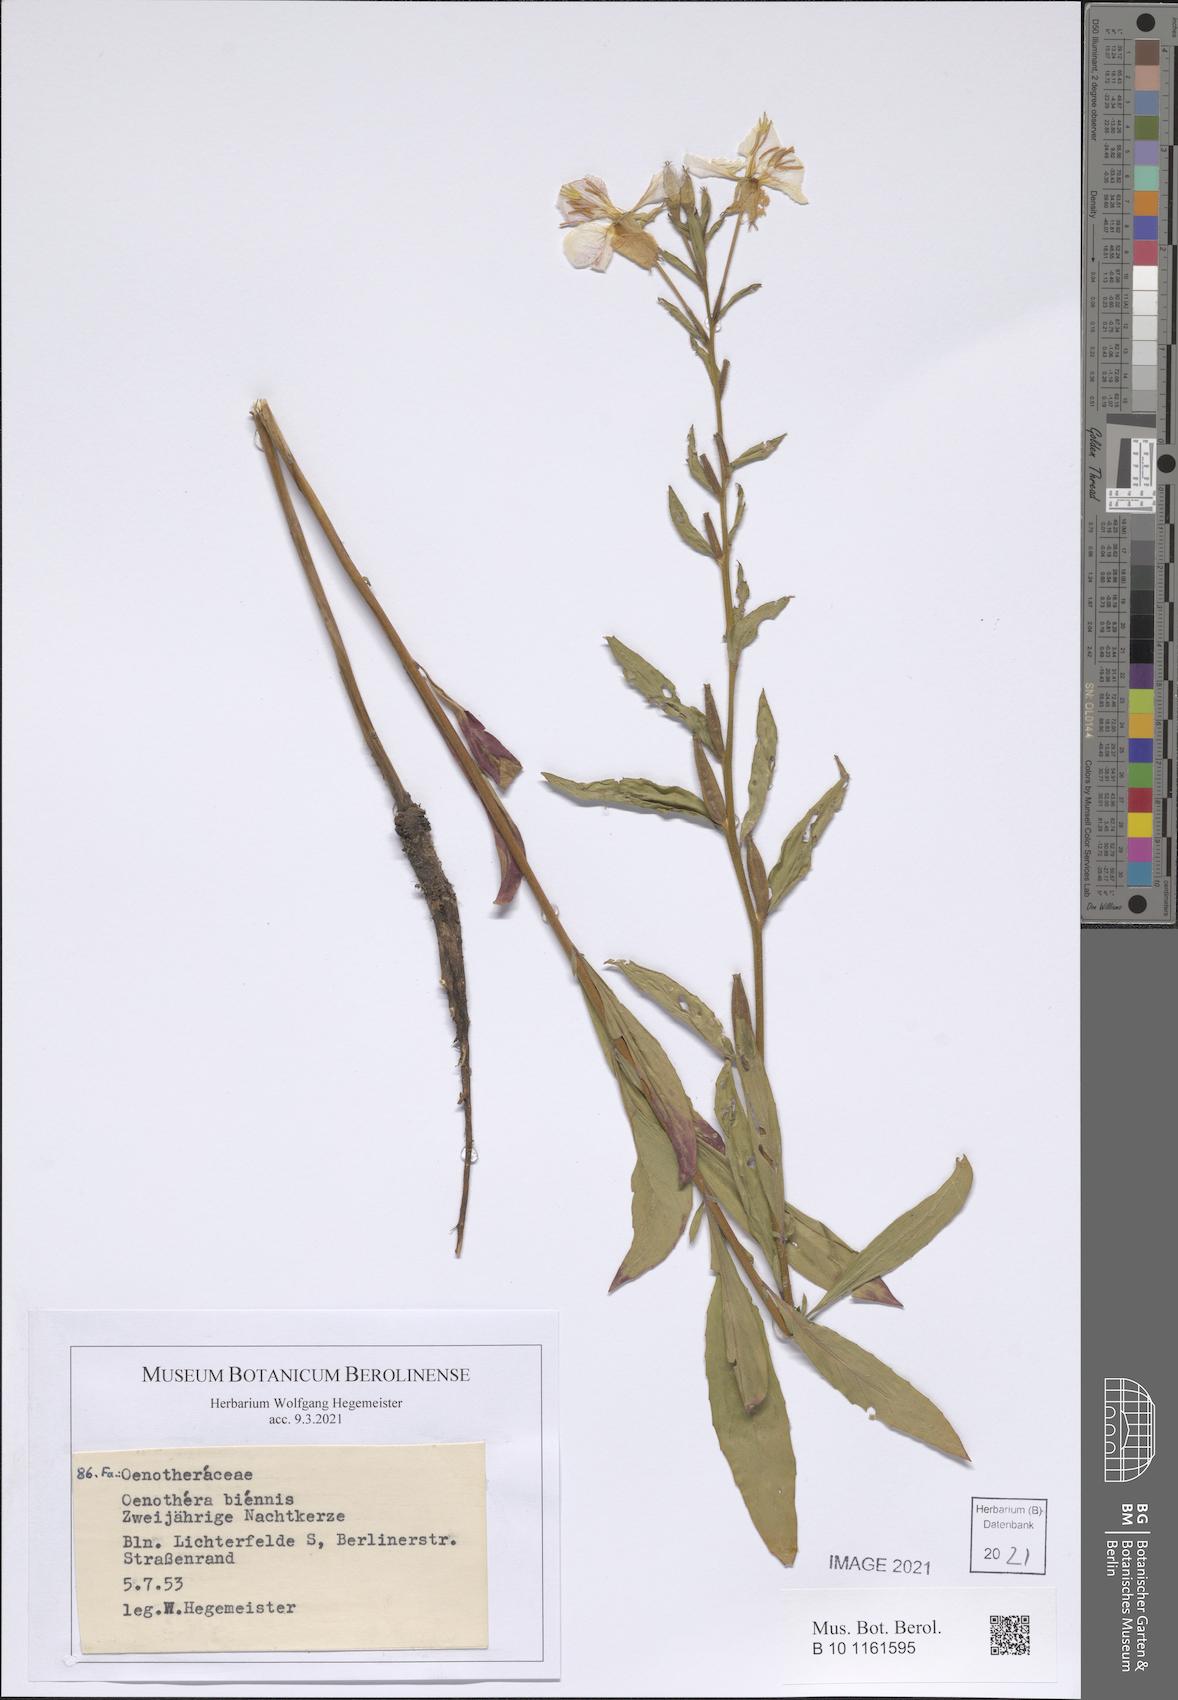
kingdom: Plantae
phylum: Tracheophyta
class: Magnoliopsida
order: Myrtales
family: Onagraceae
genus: Oenothera
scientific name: Oenothera biennis
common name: Common evening-primrose
